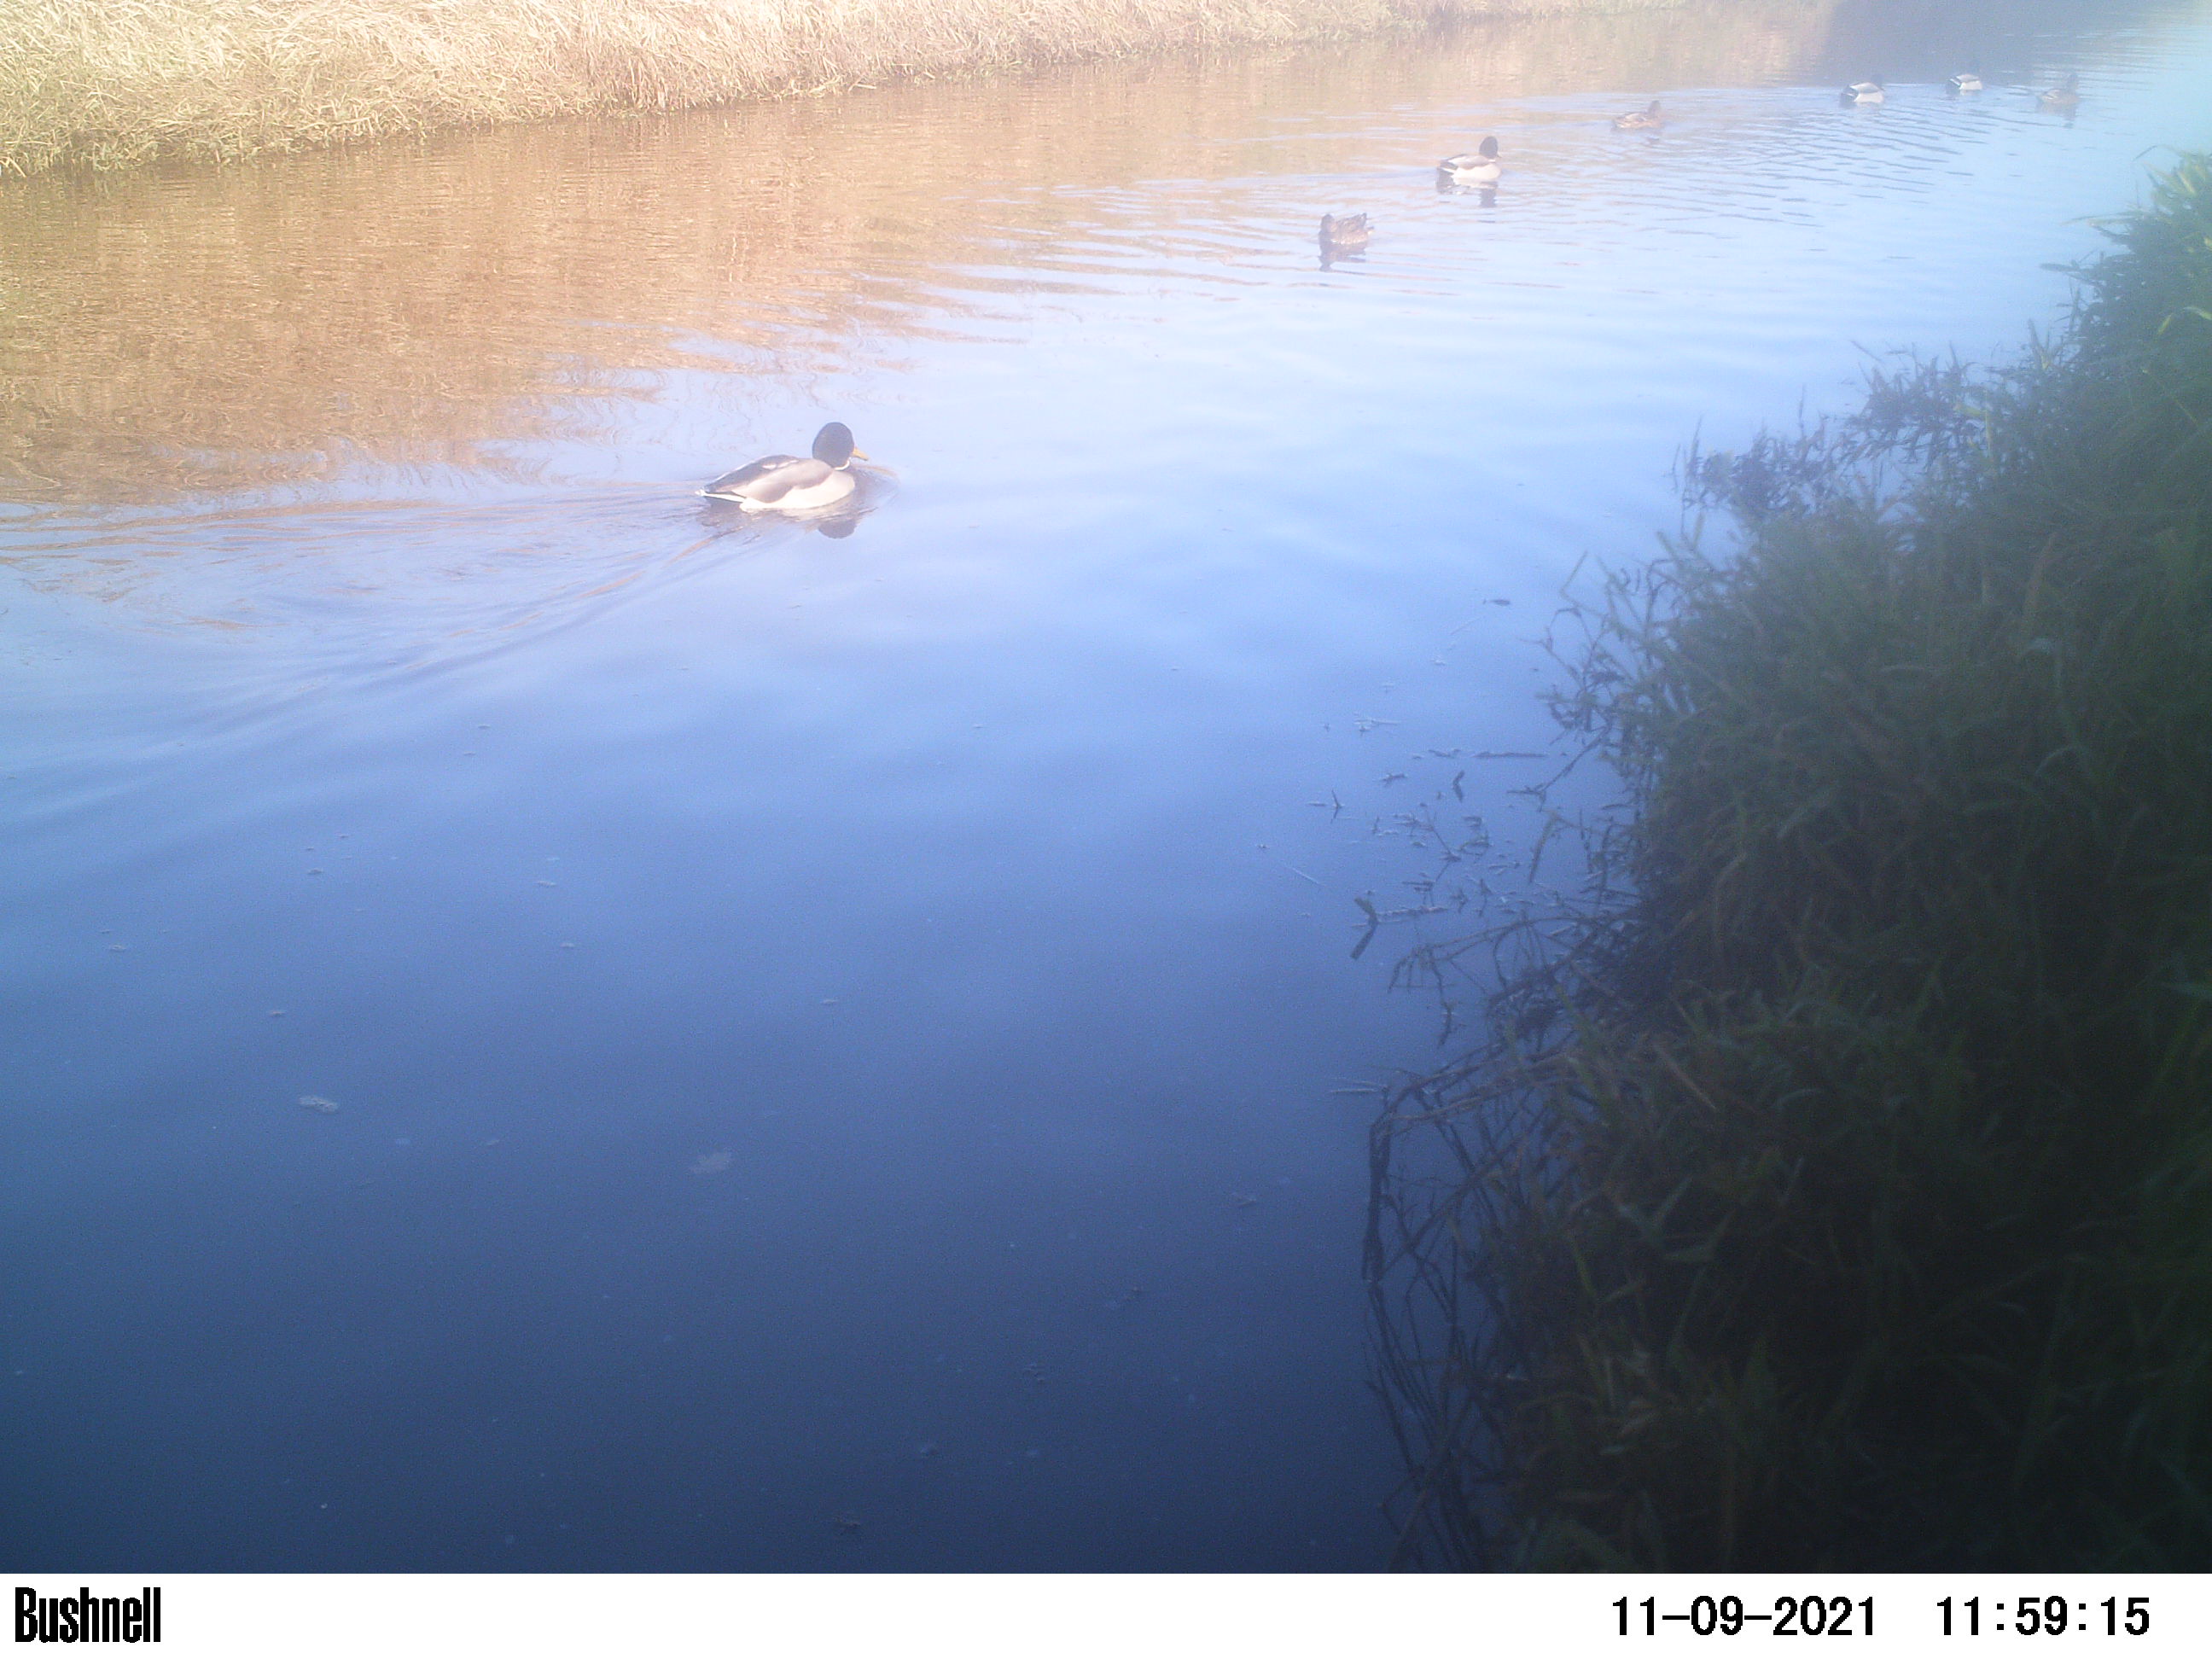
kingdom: Animalia
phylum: Chordata
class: Aves
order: Anseriformes
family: Anatidae
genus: Anas
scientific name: Anas
